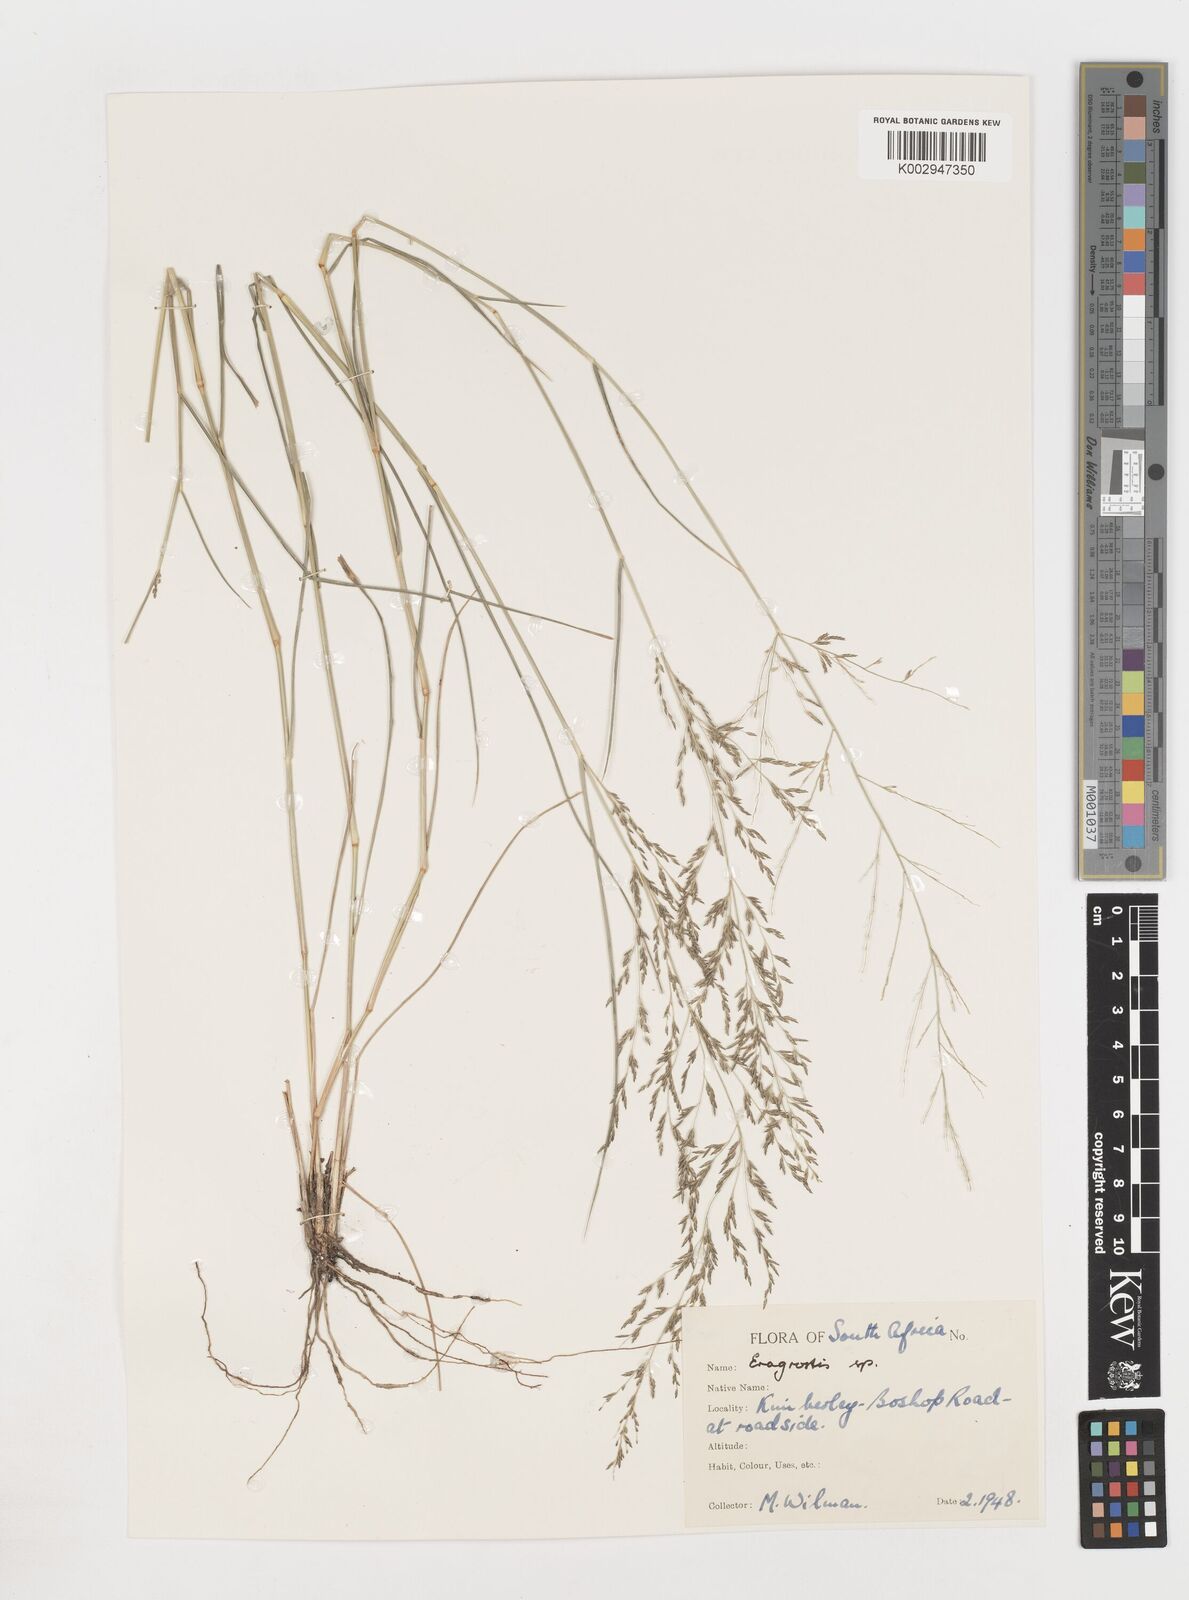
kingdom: Plantae
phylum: Tracheophyta
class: Liliopsida
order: Poales
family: Poaceae
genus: Eragrostis
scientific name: Eragrostis
